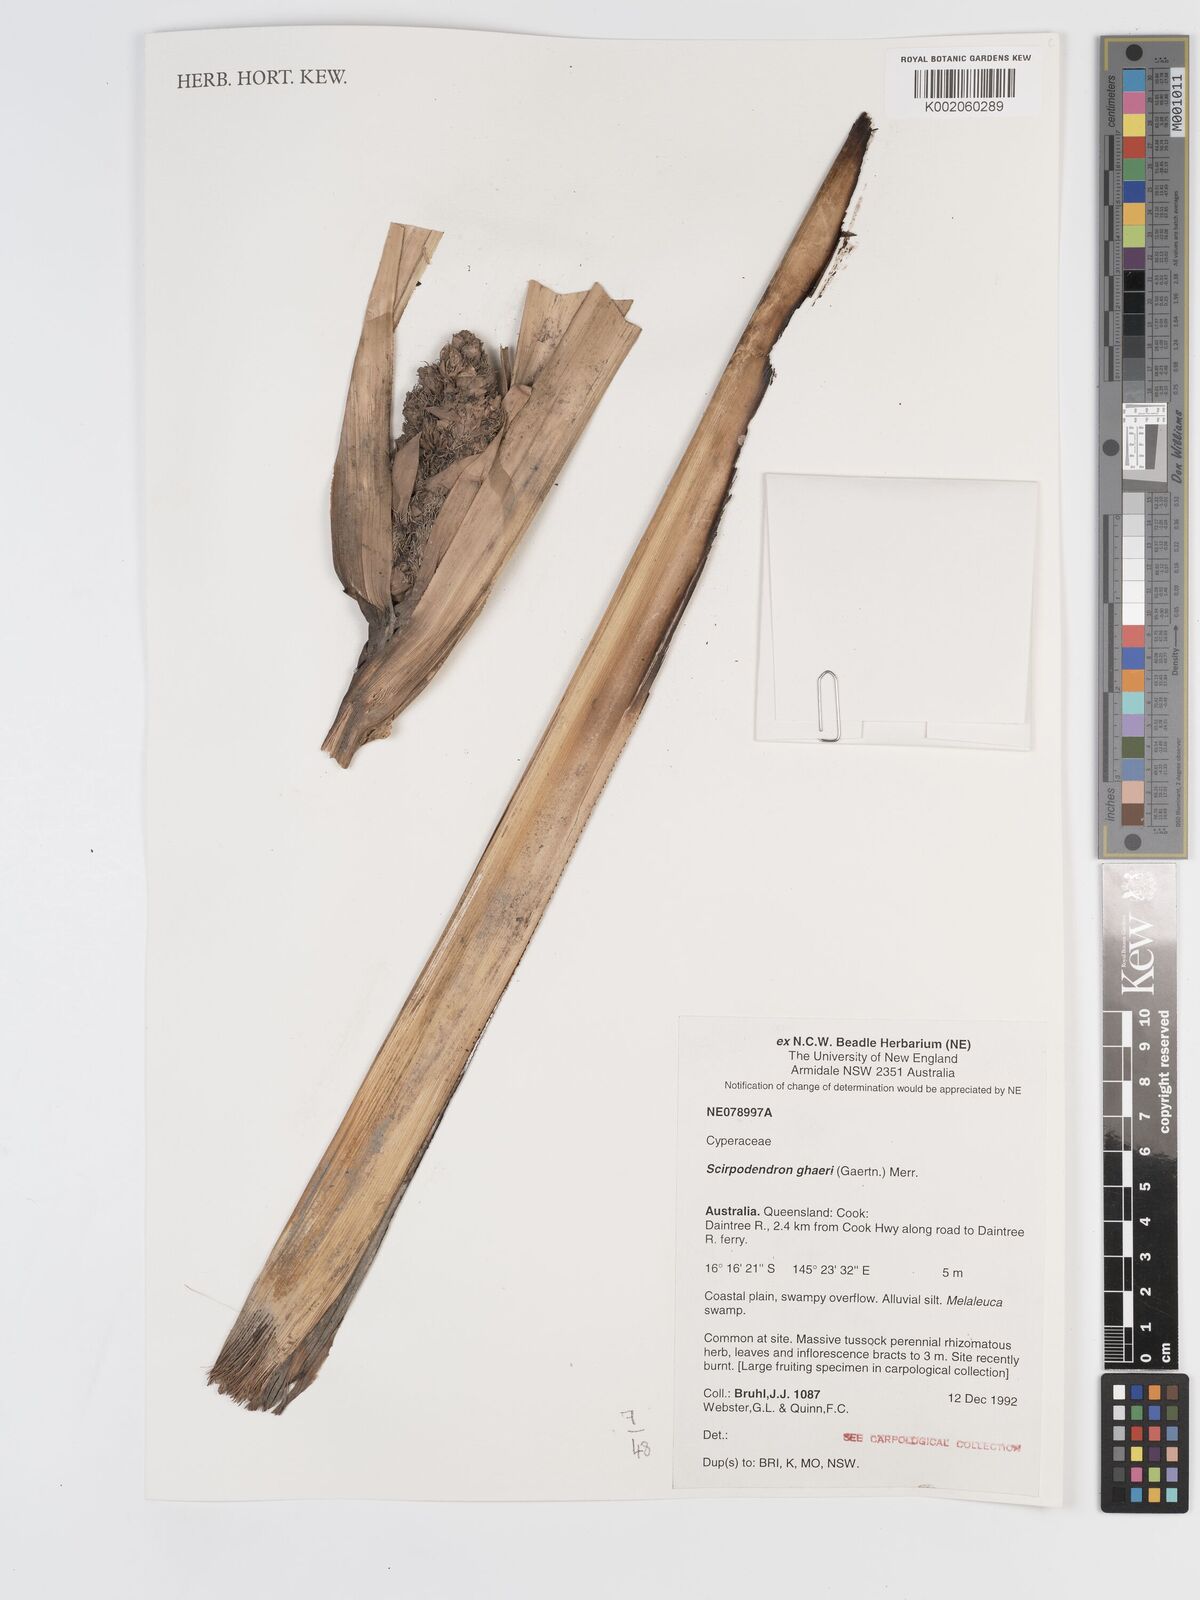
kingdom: Plantae
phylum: Tracheophyta
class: Liliopsida
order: Poales
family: Cyperaceae
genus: Scirpodendron
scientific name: Scirpodendron ghaeri
